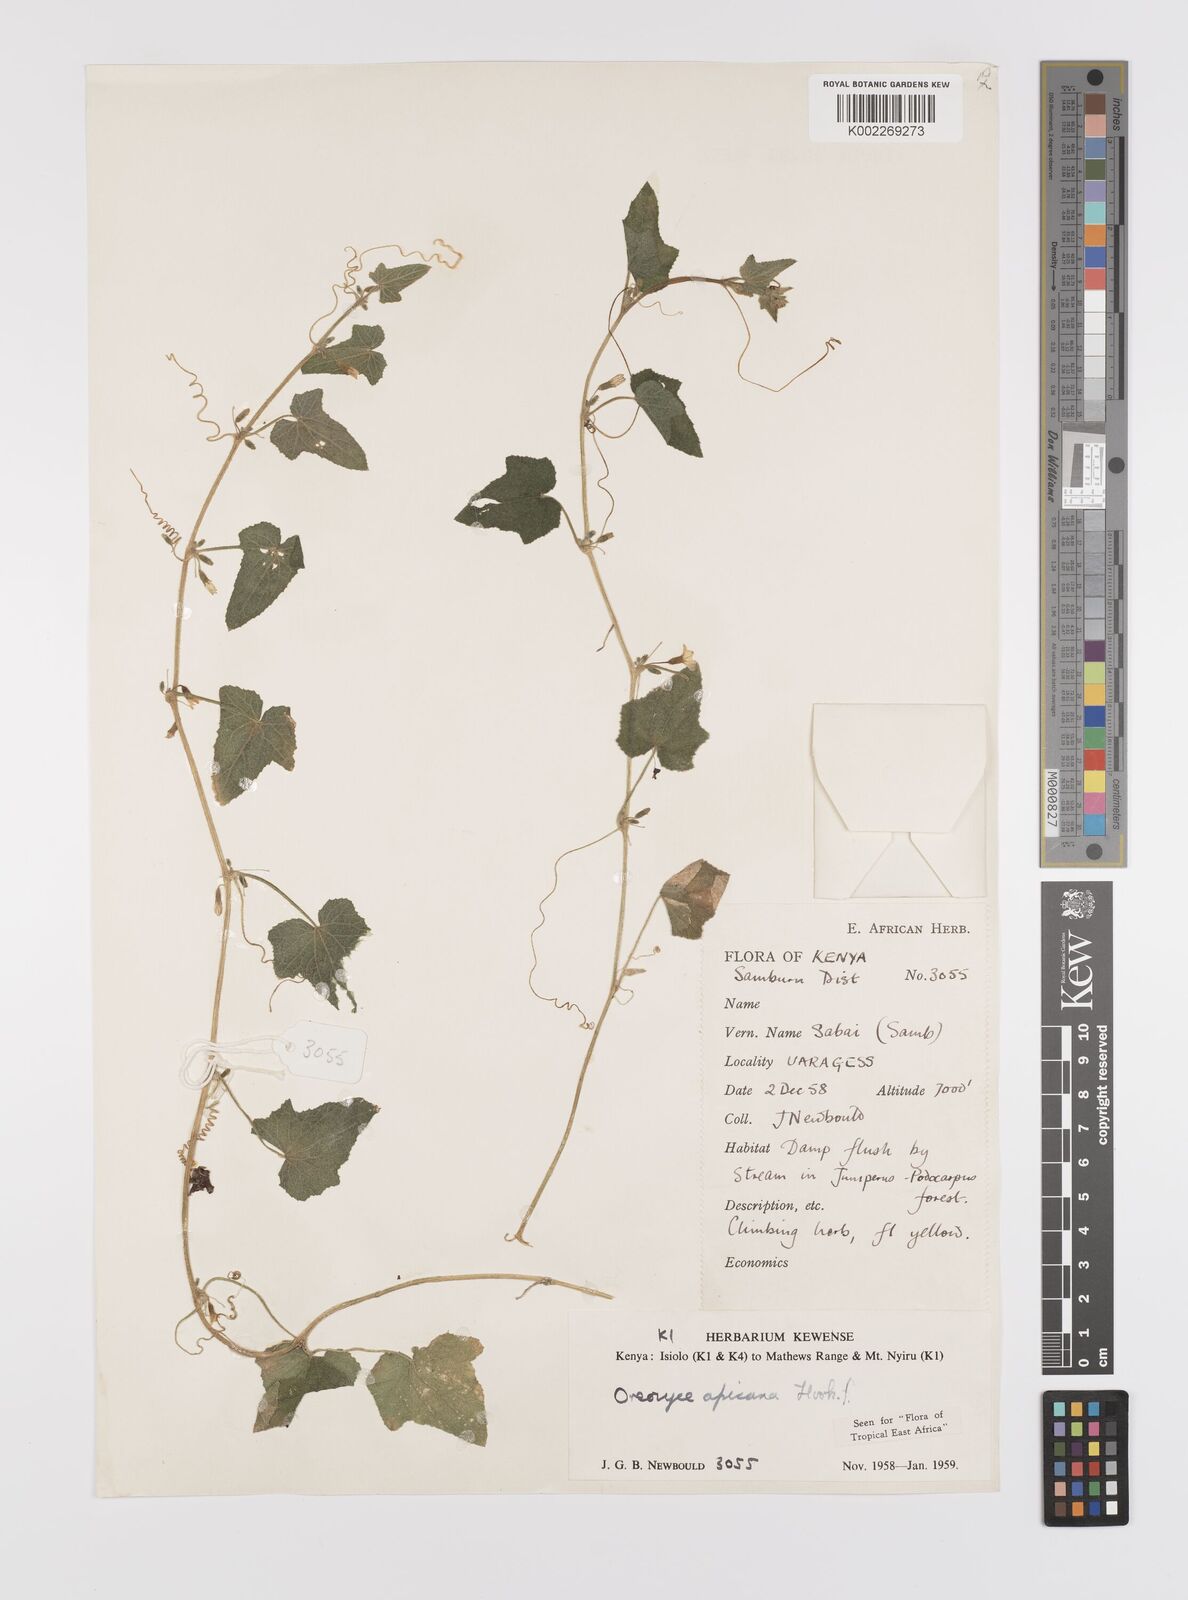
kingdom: Plantae
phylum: Tracheophyta
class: Magnoliopsida
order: Cucurbitales
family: Cucurbitaceae
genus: Cucumis
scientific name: Cucumis oreosyce
